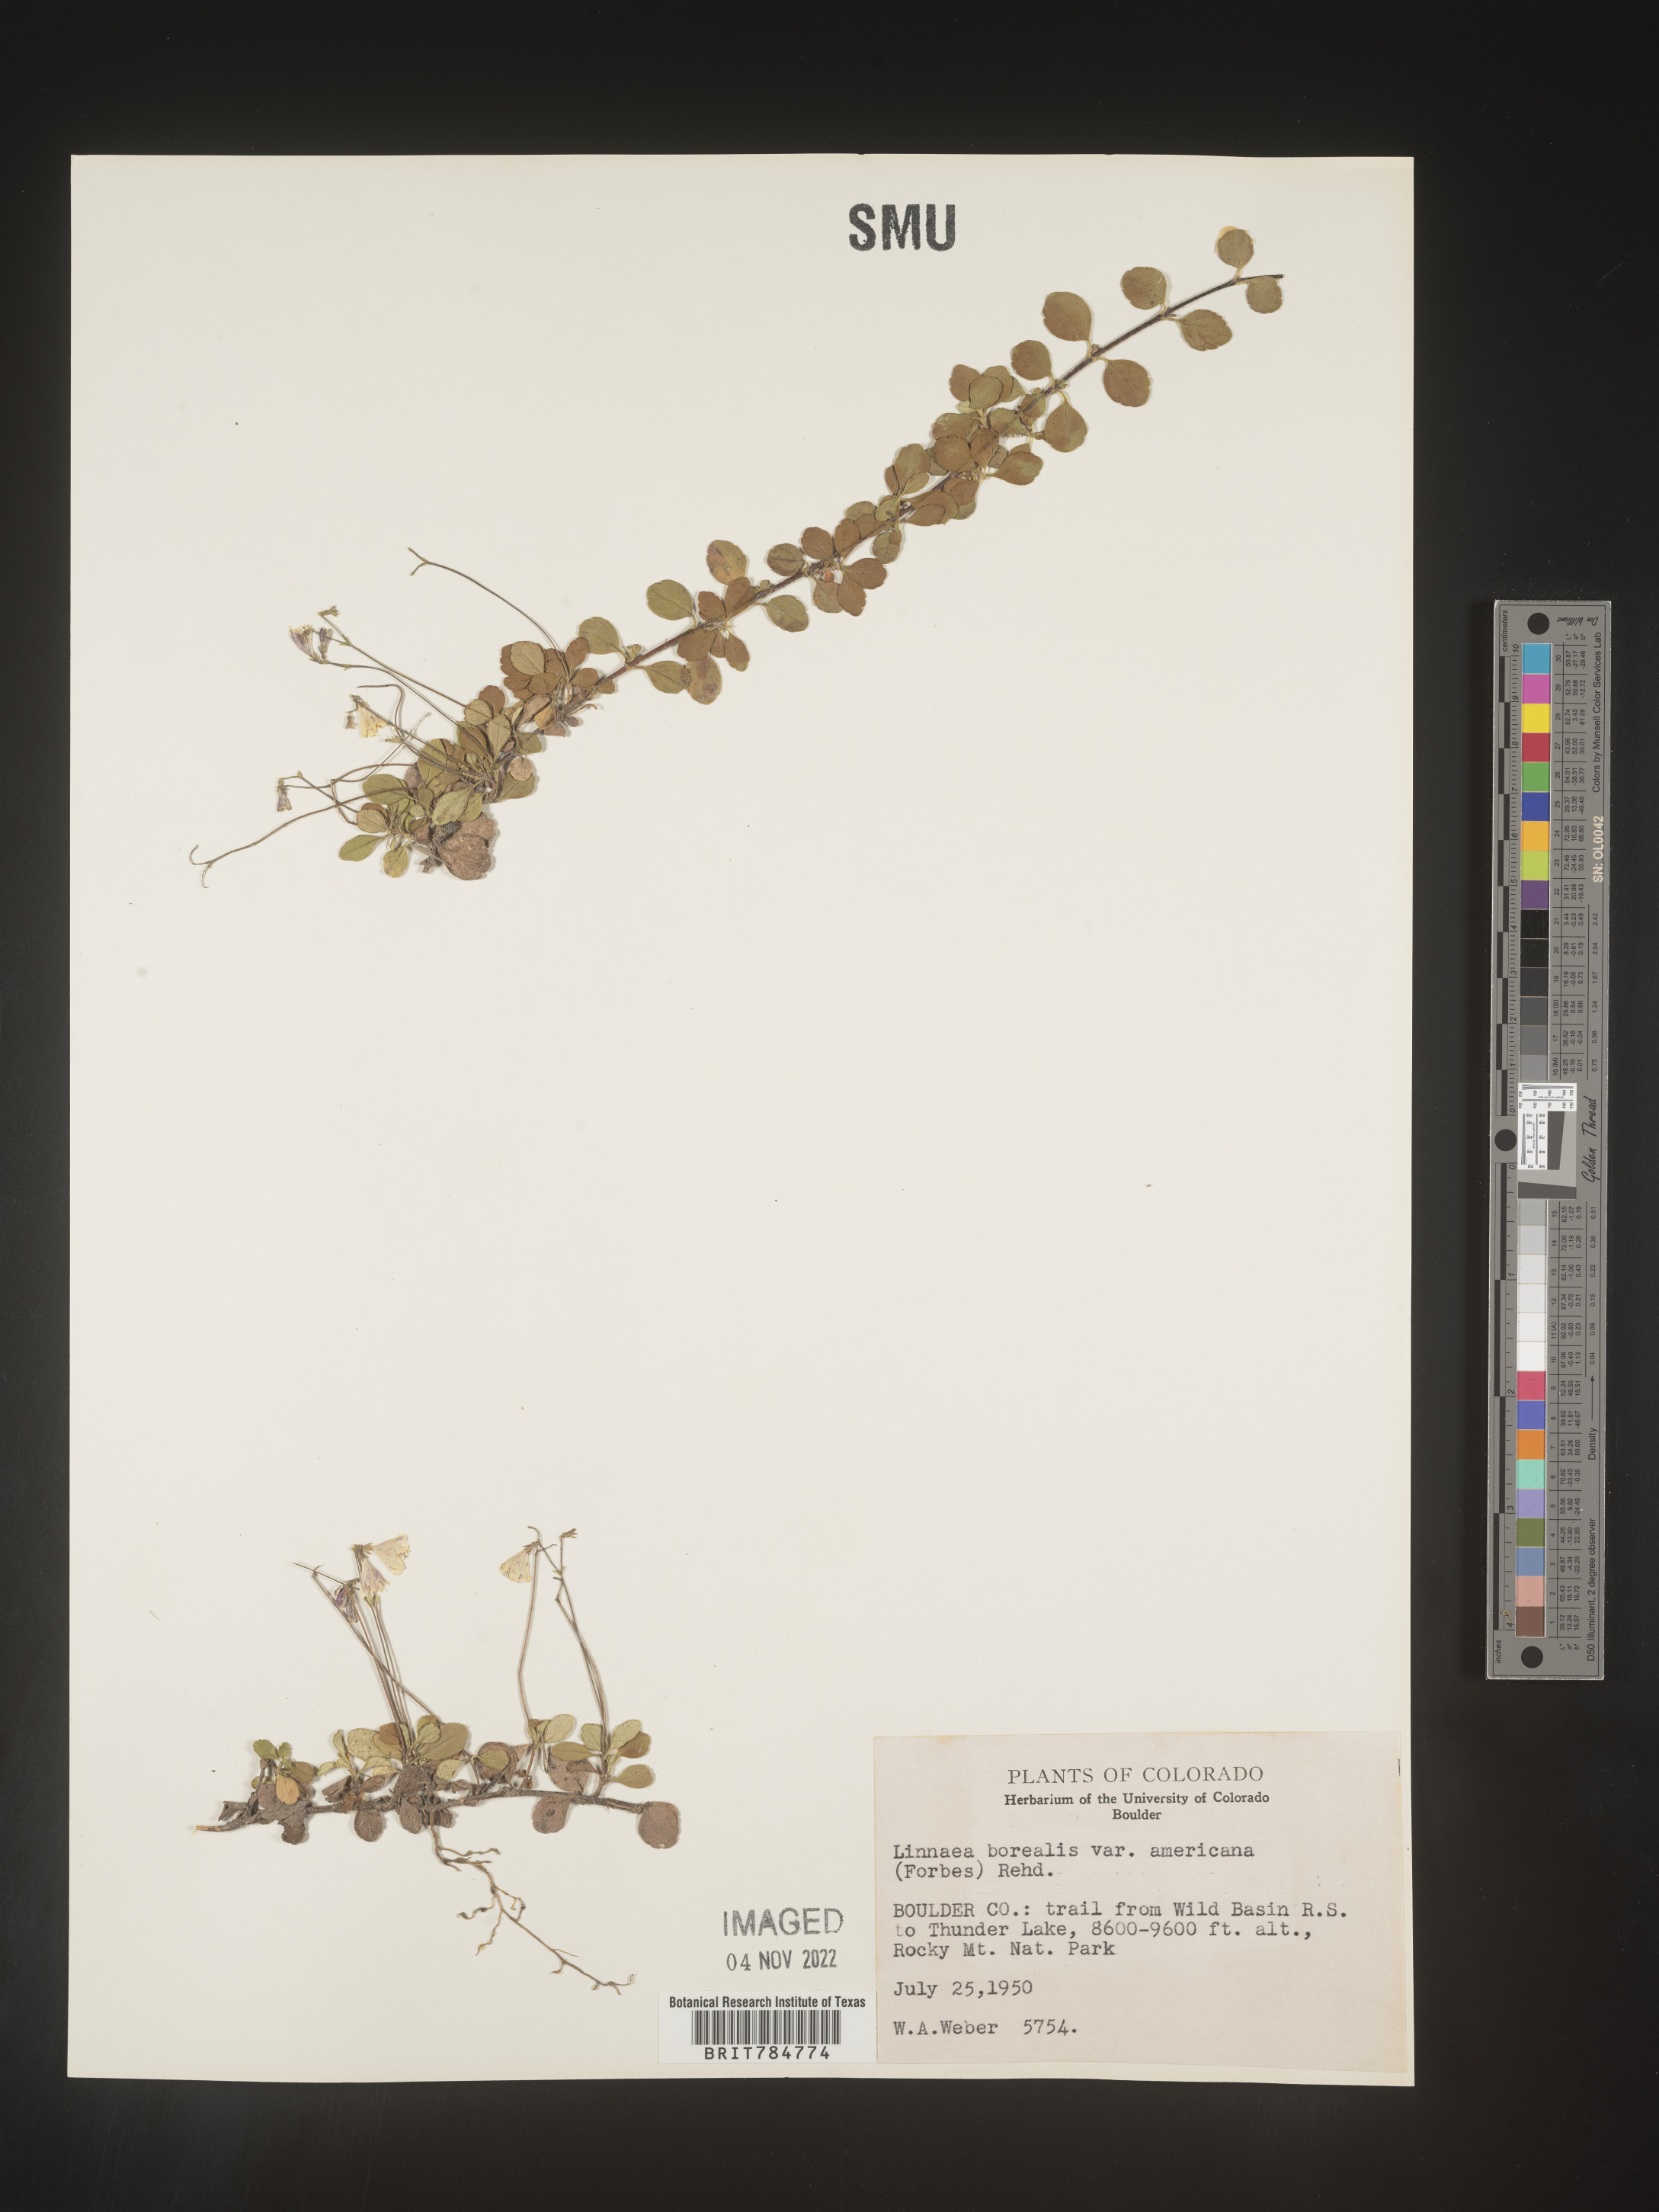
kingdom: Plantae
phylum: Tracheophyta
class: Magnoliopsida
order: Dipsacales
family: Caprifoliaceae
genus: Linnaea
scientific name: Linnaea borealis
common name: Twinflower
